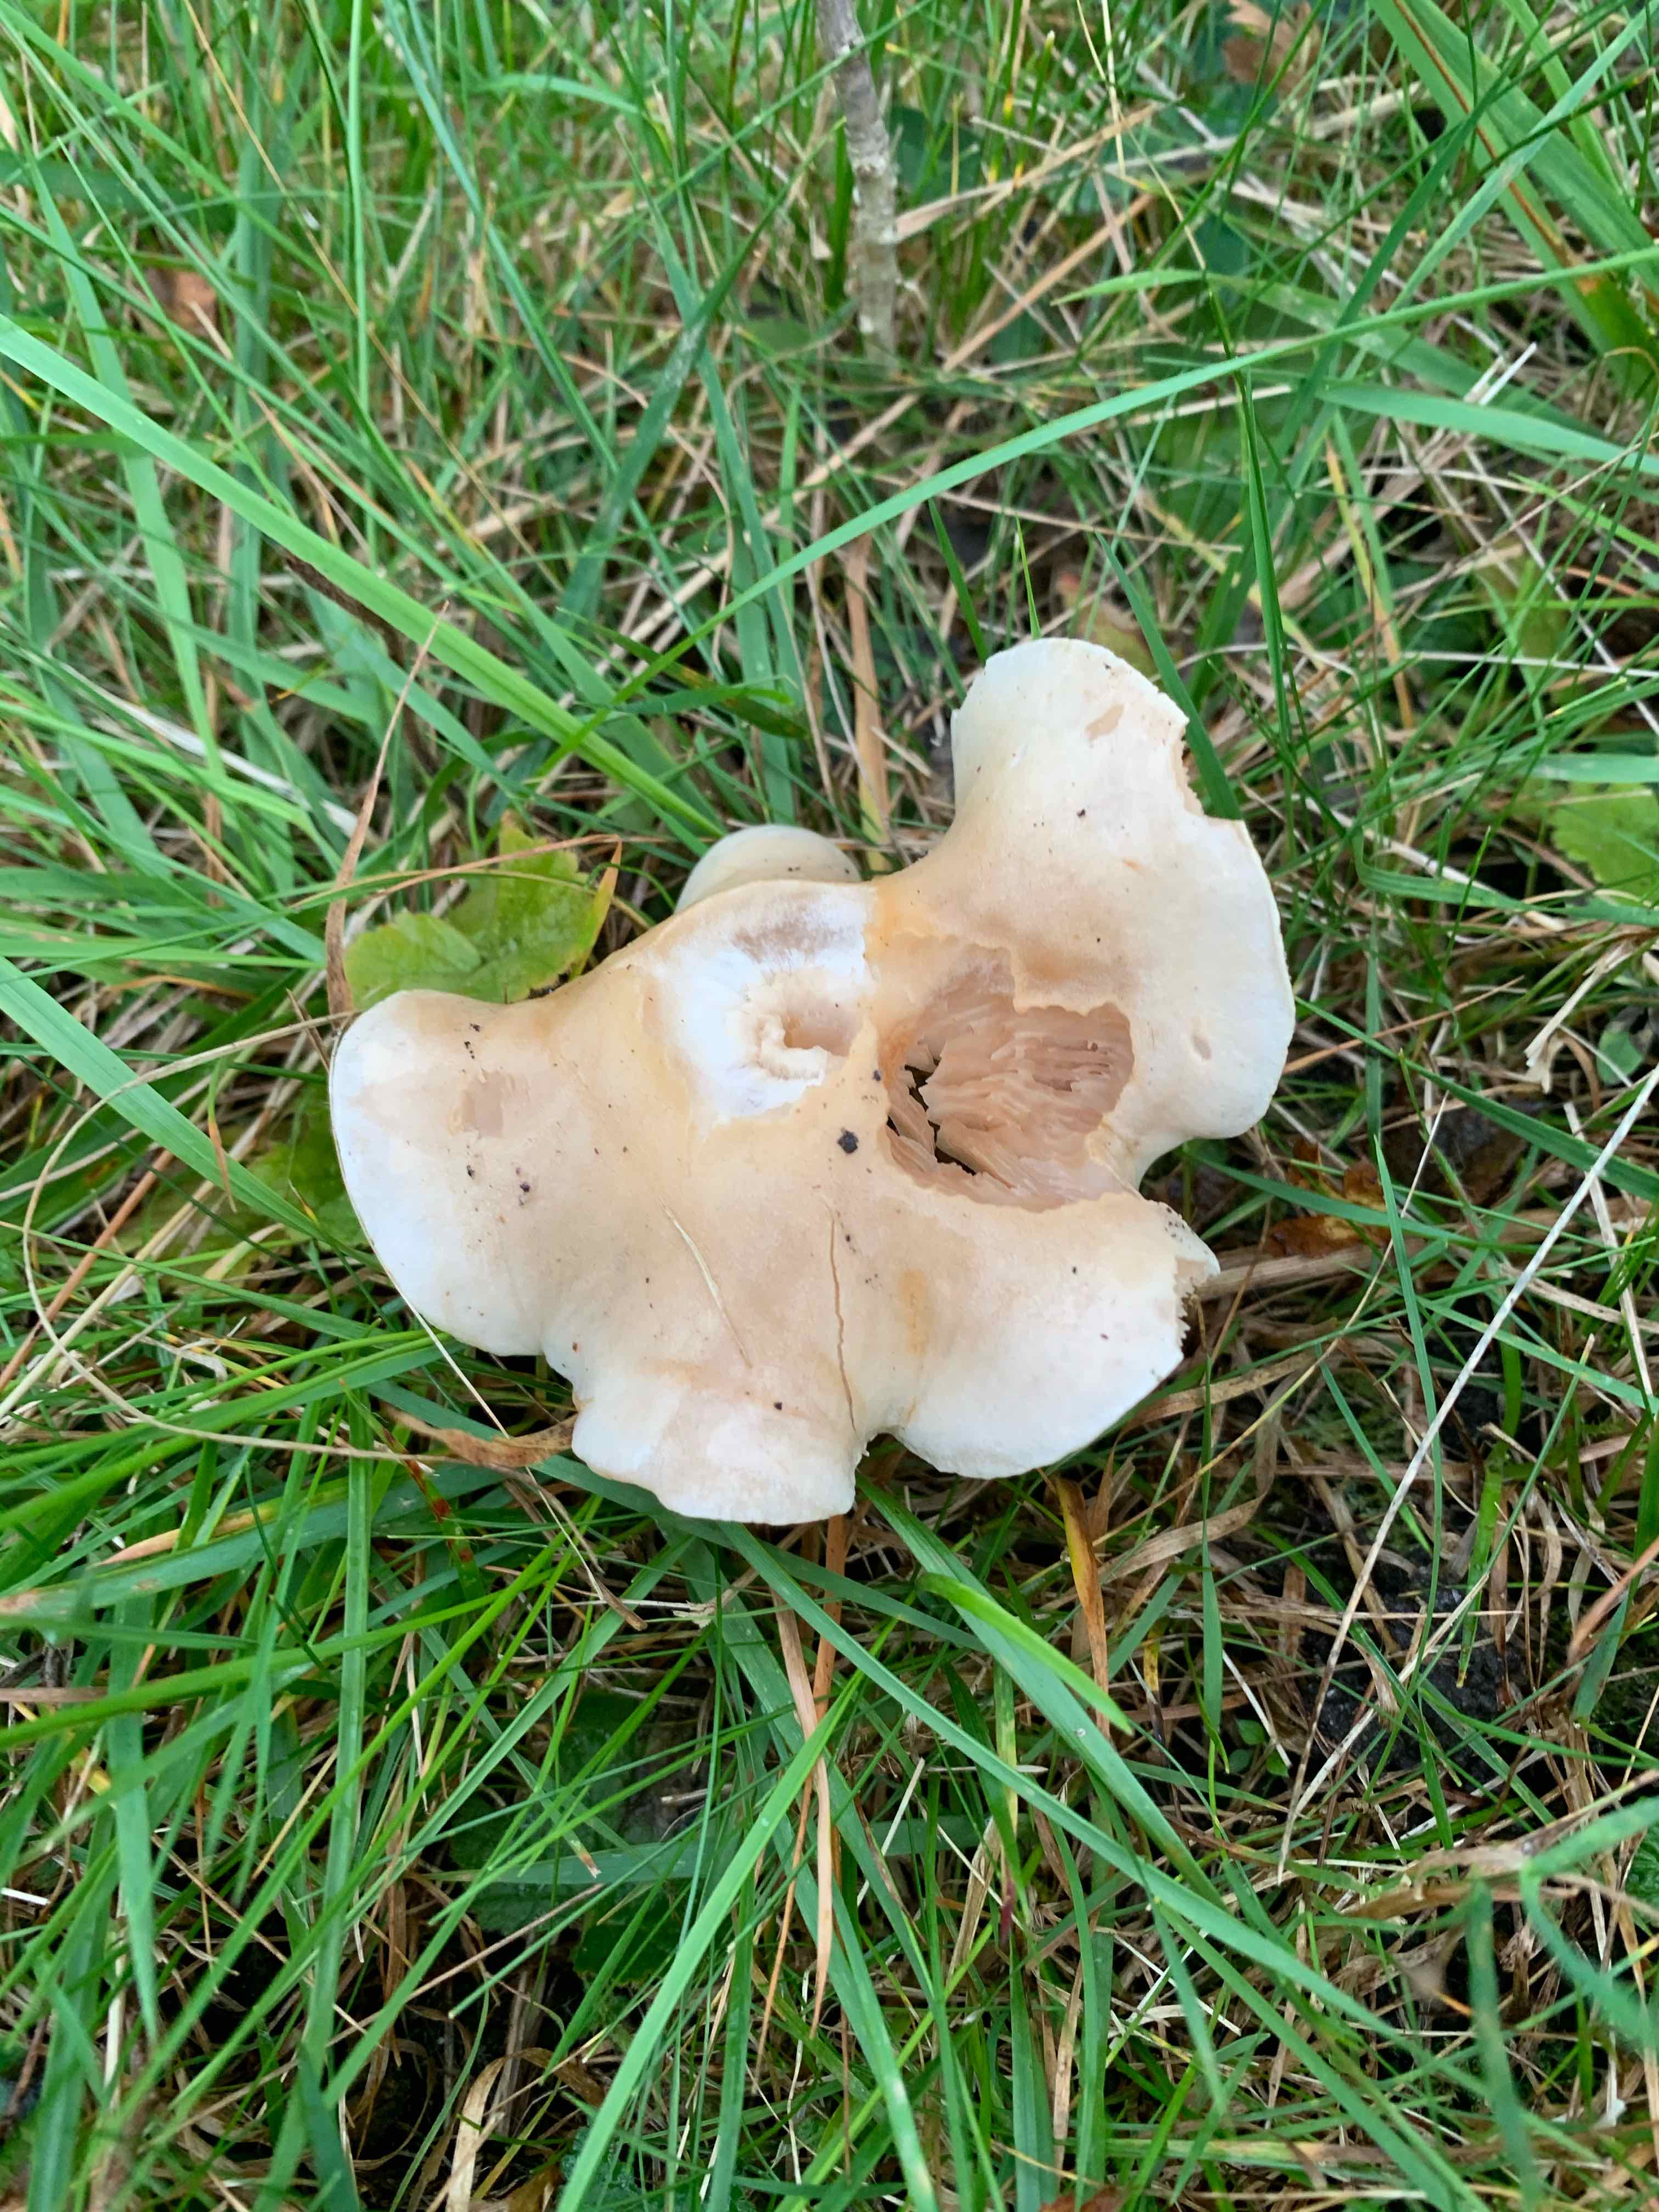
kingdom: Fungi
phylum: Basidiomycota
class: Agaricomycetes
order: Agaricales
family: Hymenogastraceae
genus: Hebeloma
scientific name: Hebeloma
